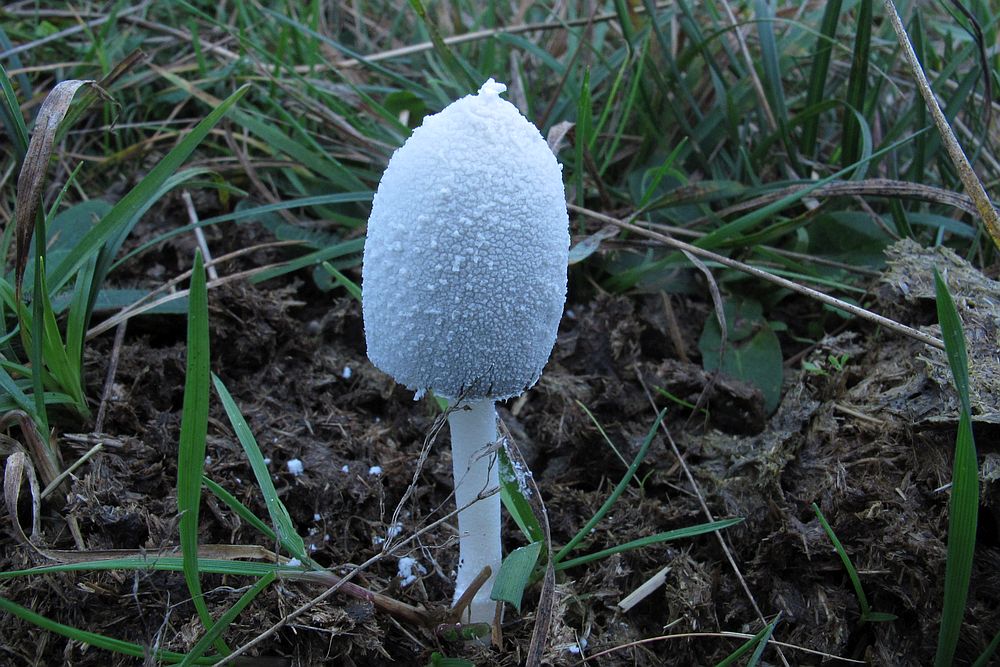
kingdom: Fungi
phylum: Basidiomycota
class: Agaricomycetes
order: Agaricales
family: Psathyrellaceae
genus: Coprinopsis
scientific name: Coprinopsis nivea
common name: snehvid blækhat
